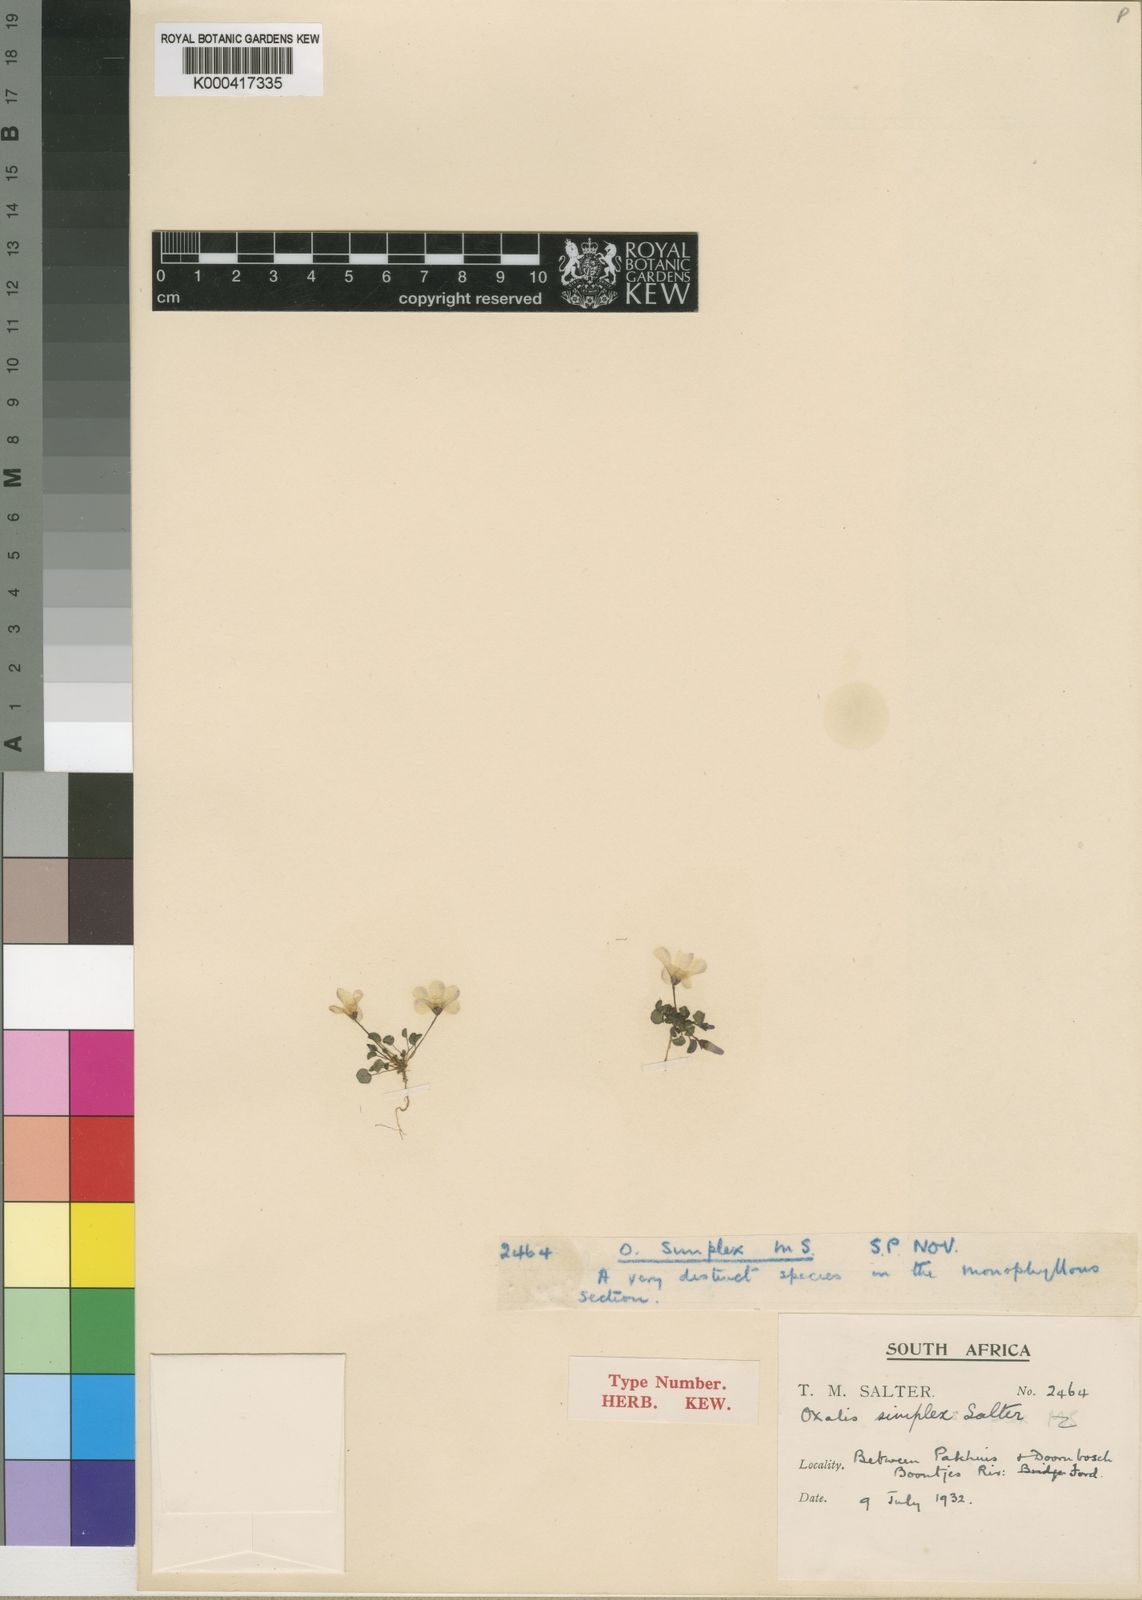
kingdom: Plantae
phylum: Tracheophyta
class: Magnoliopsida
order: Oxalidales
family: Oxalidaceae
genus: Oxalis
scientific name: Oxalis simplex
